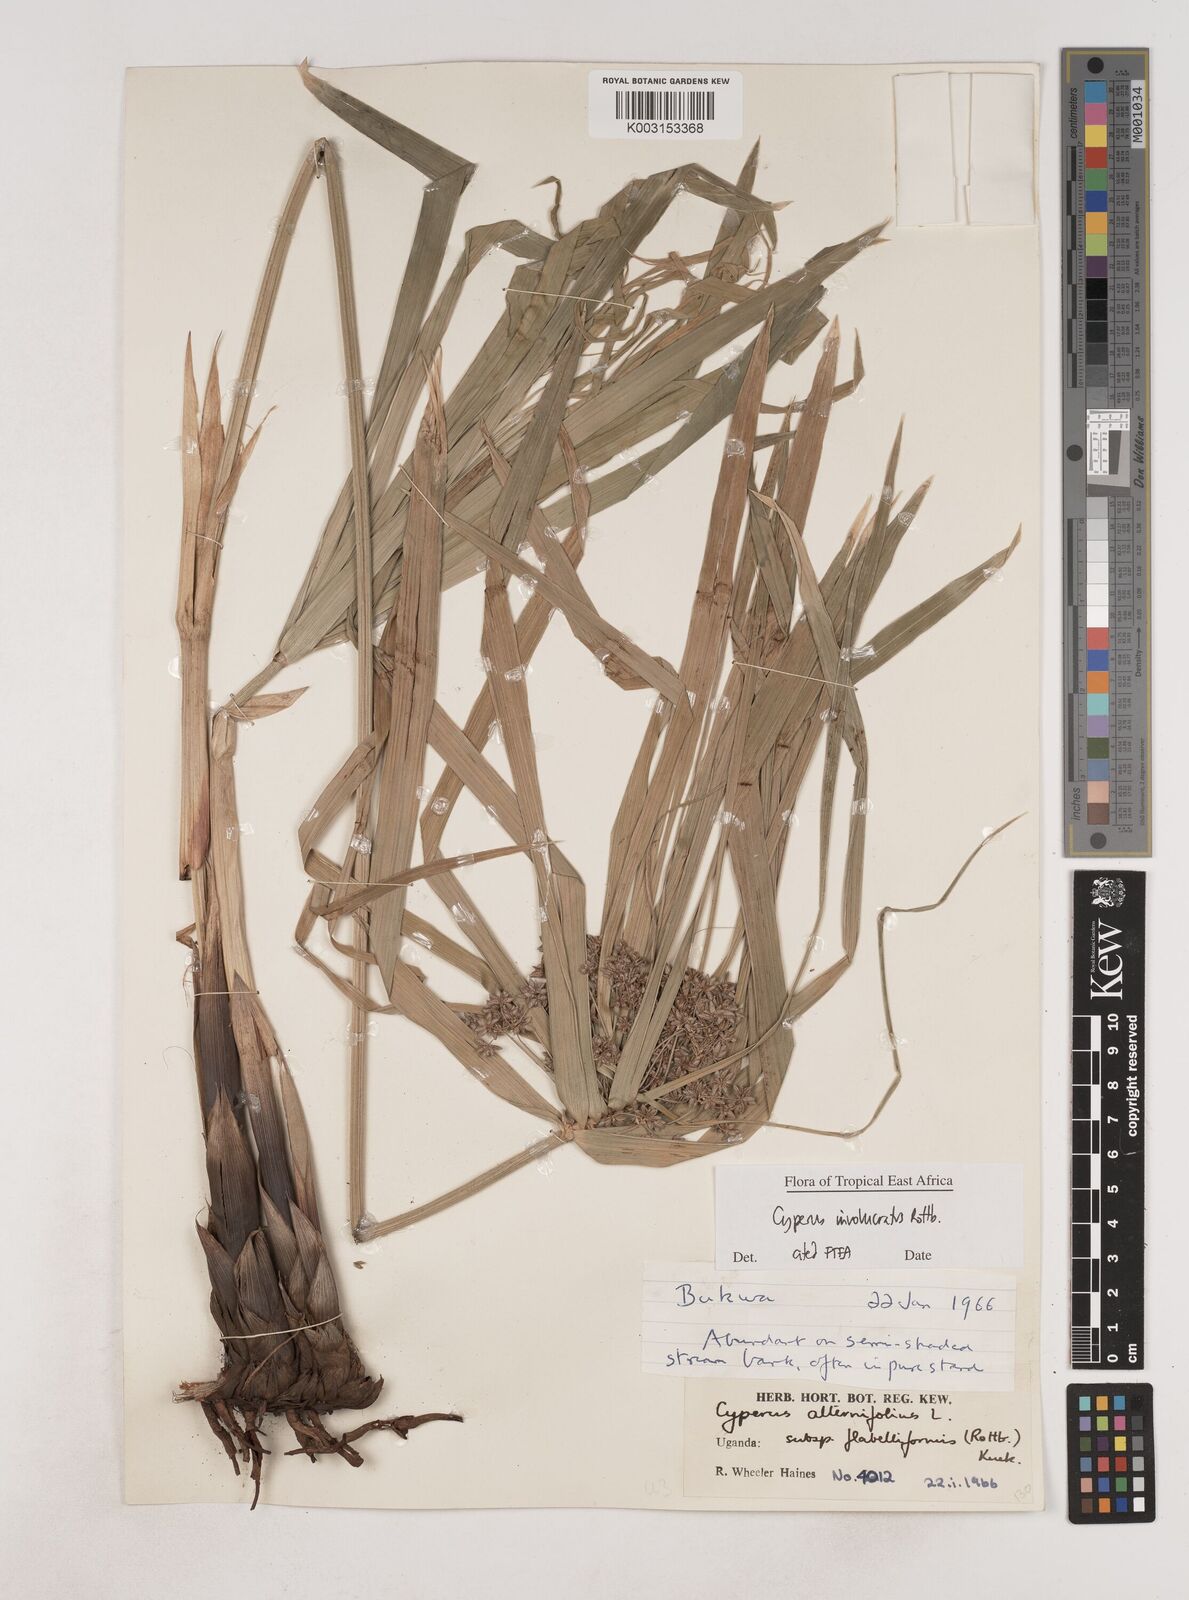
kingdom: Plantae
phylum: Tracheophyta
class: Liliopsida
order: Poales
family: Cyperaceae
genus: Cyperus
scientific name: Cyperus alternifolius
